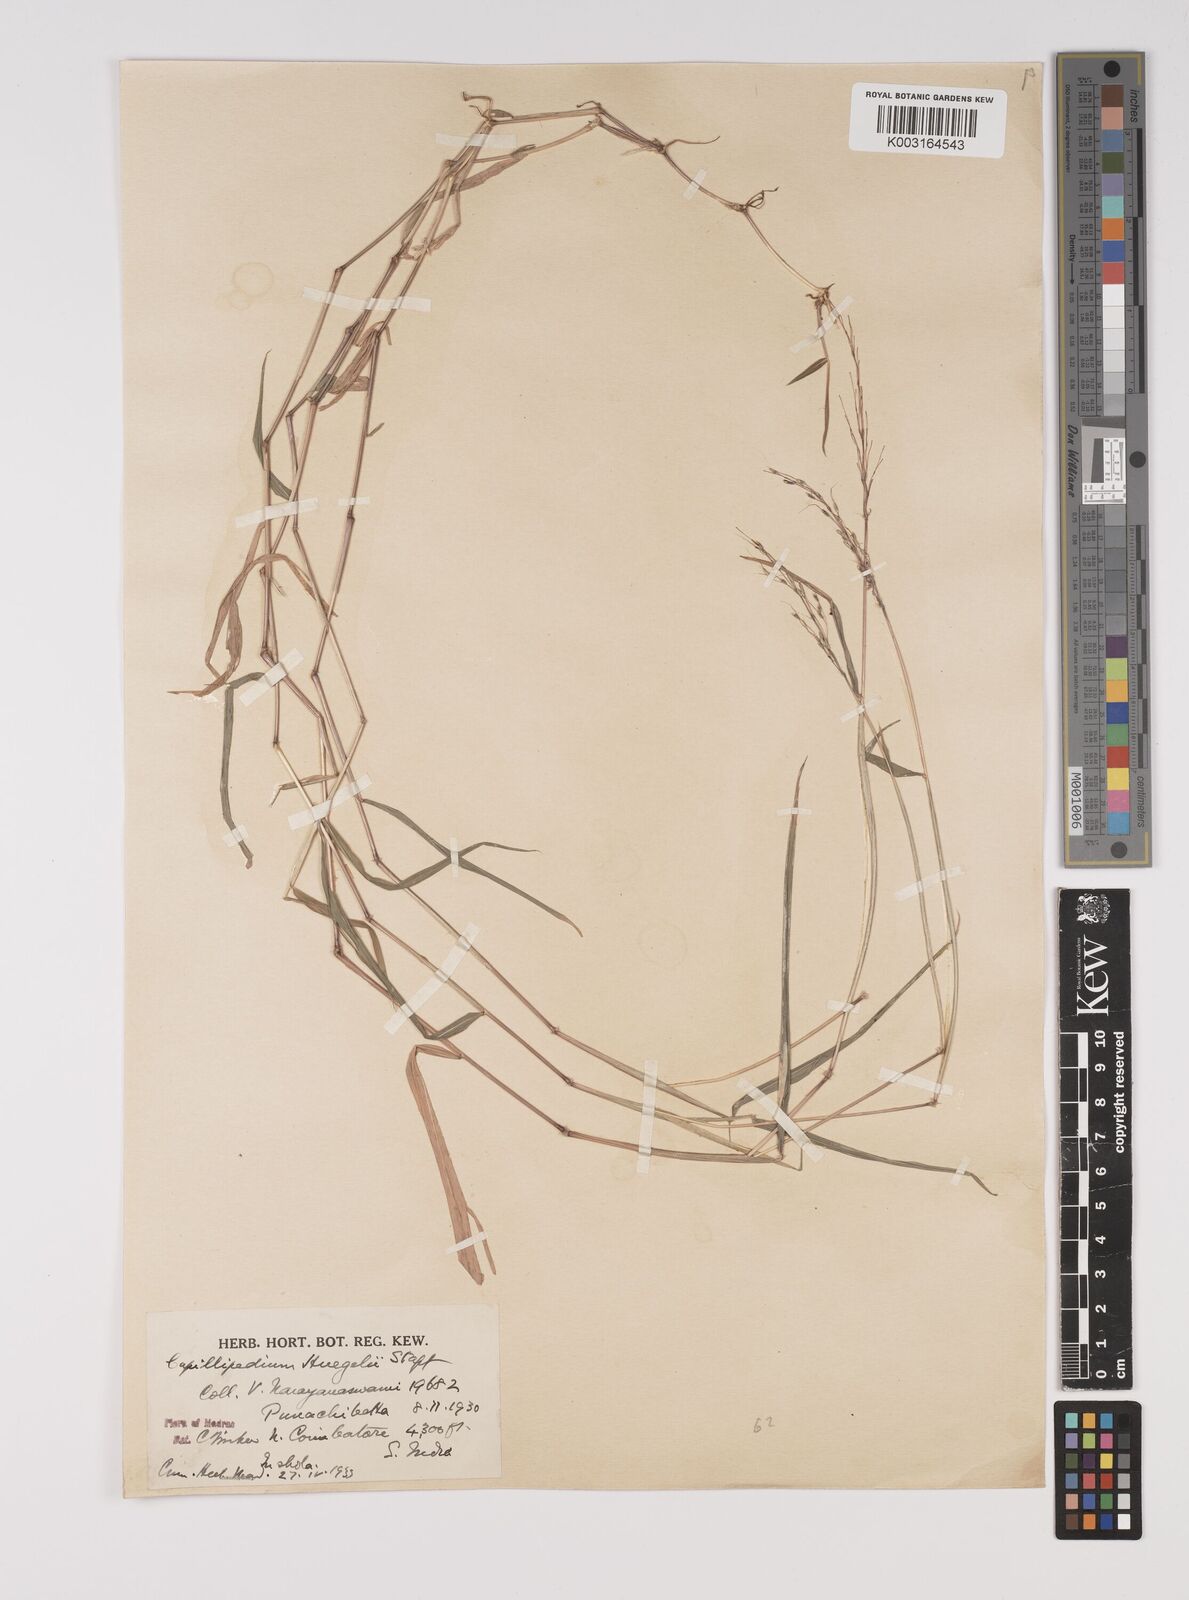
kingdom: Plantae
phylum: Tracheophyta
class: Liliopsida
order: Poales
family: Poaceae
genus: Capillipedium
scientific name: Capillipedium huegelii
